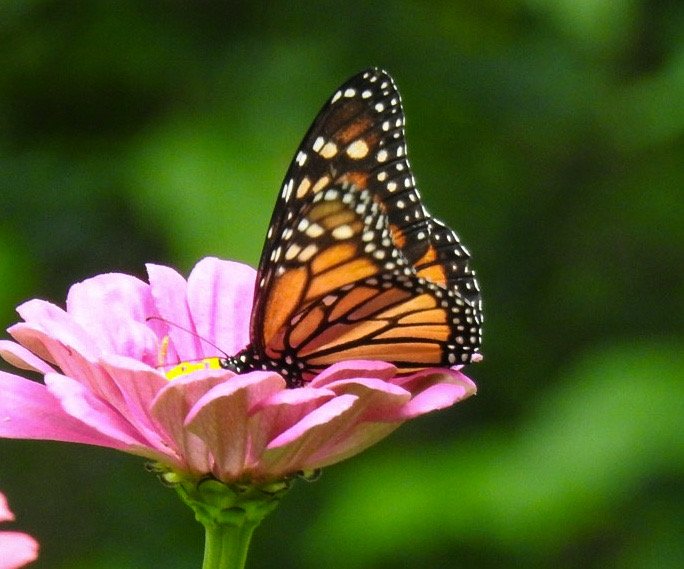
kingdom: Animalia
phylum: Arthropoda
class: Insecta
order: Lepidoptera
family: Nymphalidae
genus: Danaus
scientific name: Danaus plexippus
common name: Monarch
